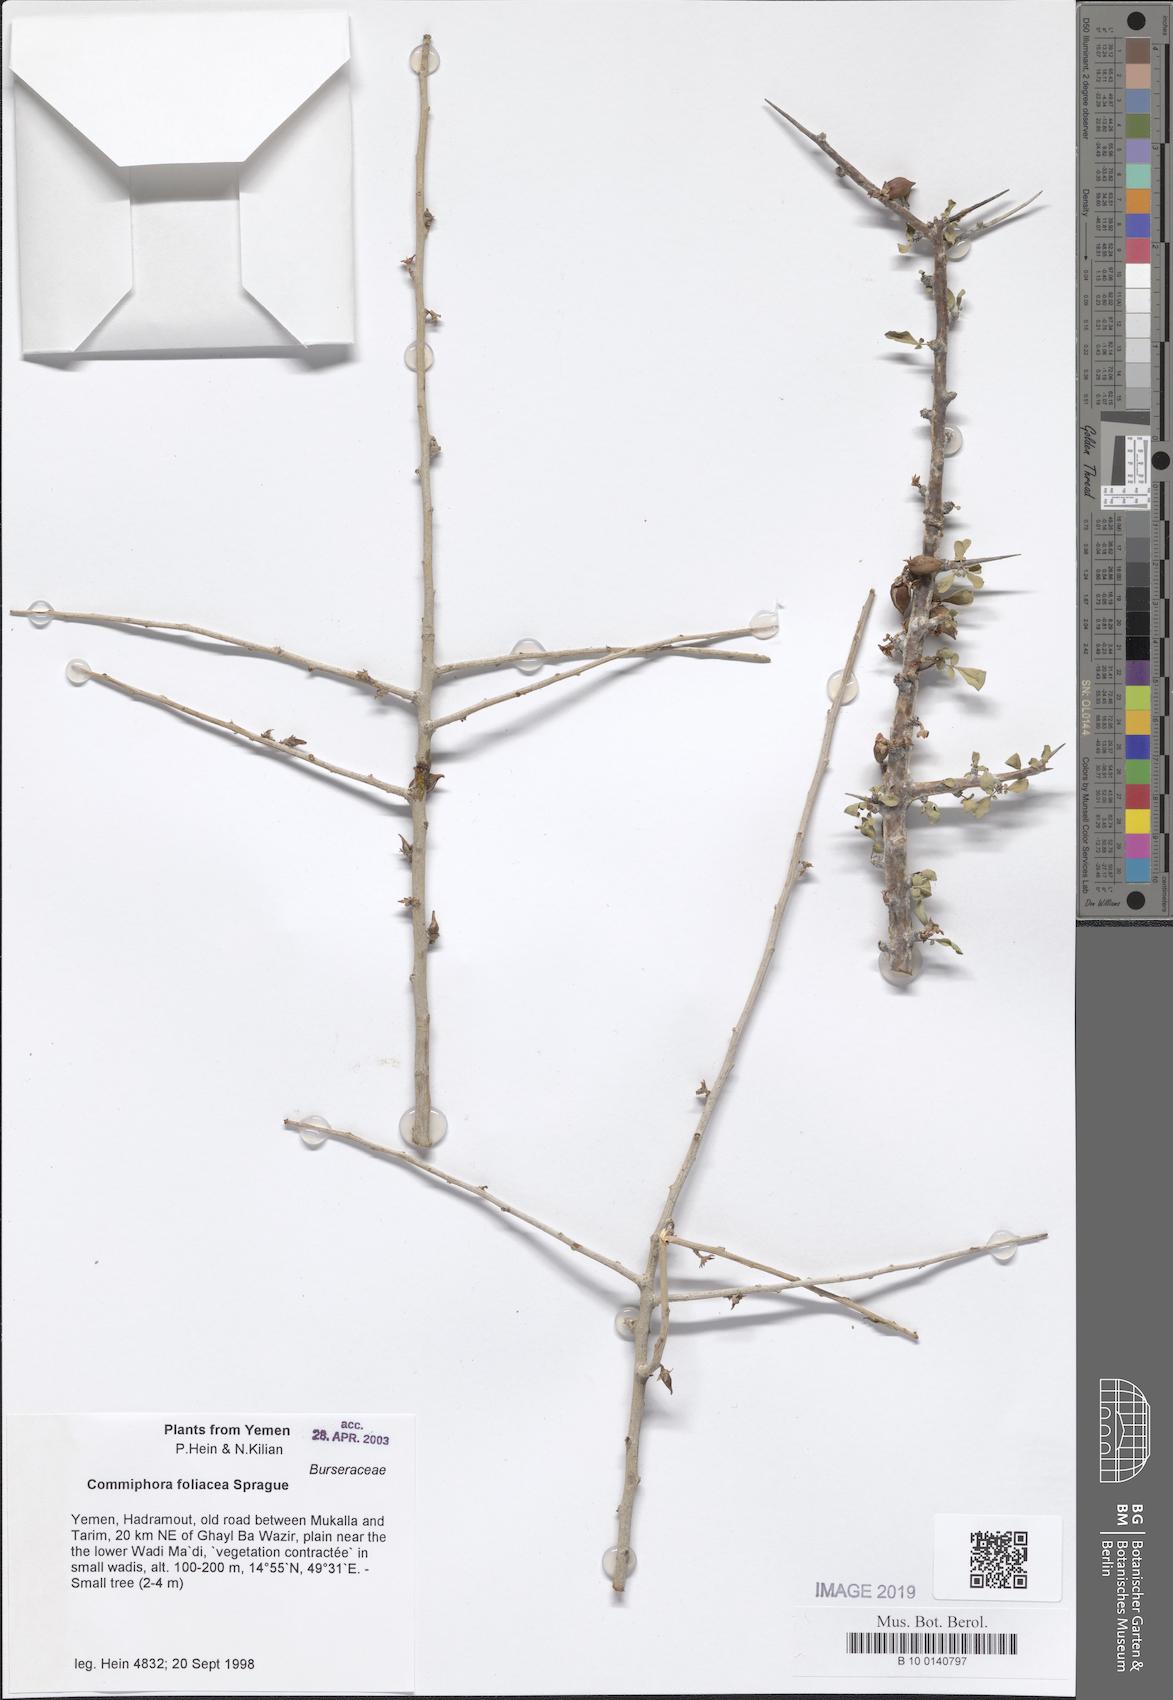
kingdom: Plantae
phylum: Tracheophyta
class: Magnoliopsida
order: Sapindales
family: Burseraceae
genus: Commiphora
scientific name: Commiphora foliacea
